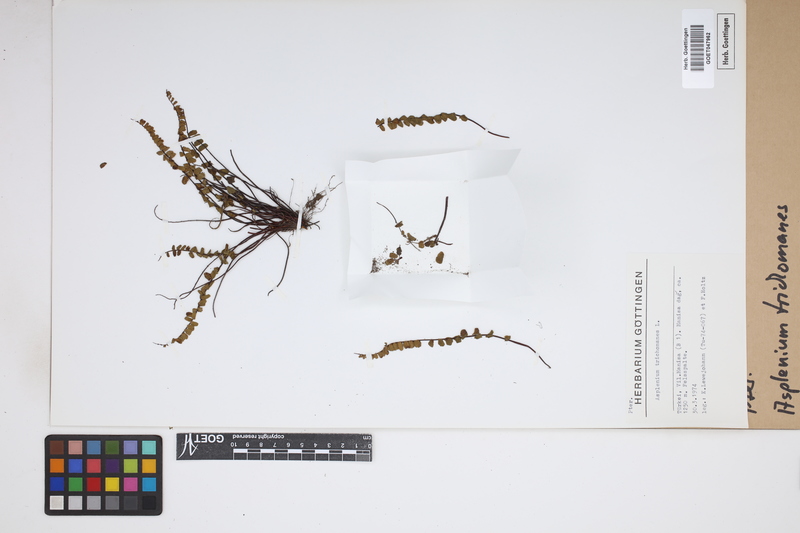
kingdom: Plantae
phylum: Tracheophyta
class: Polypodiopsida
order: Polypodiales
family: Aspleniaceae
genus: Asplenium
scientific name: Asplenium trichomanes
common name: Maidenhair spleenwort
